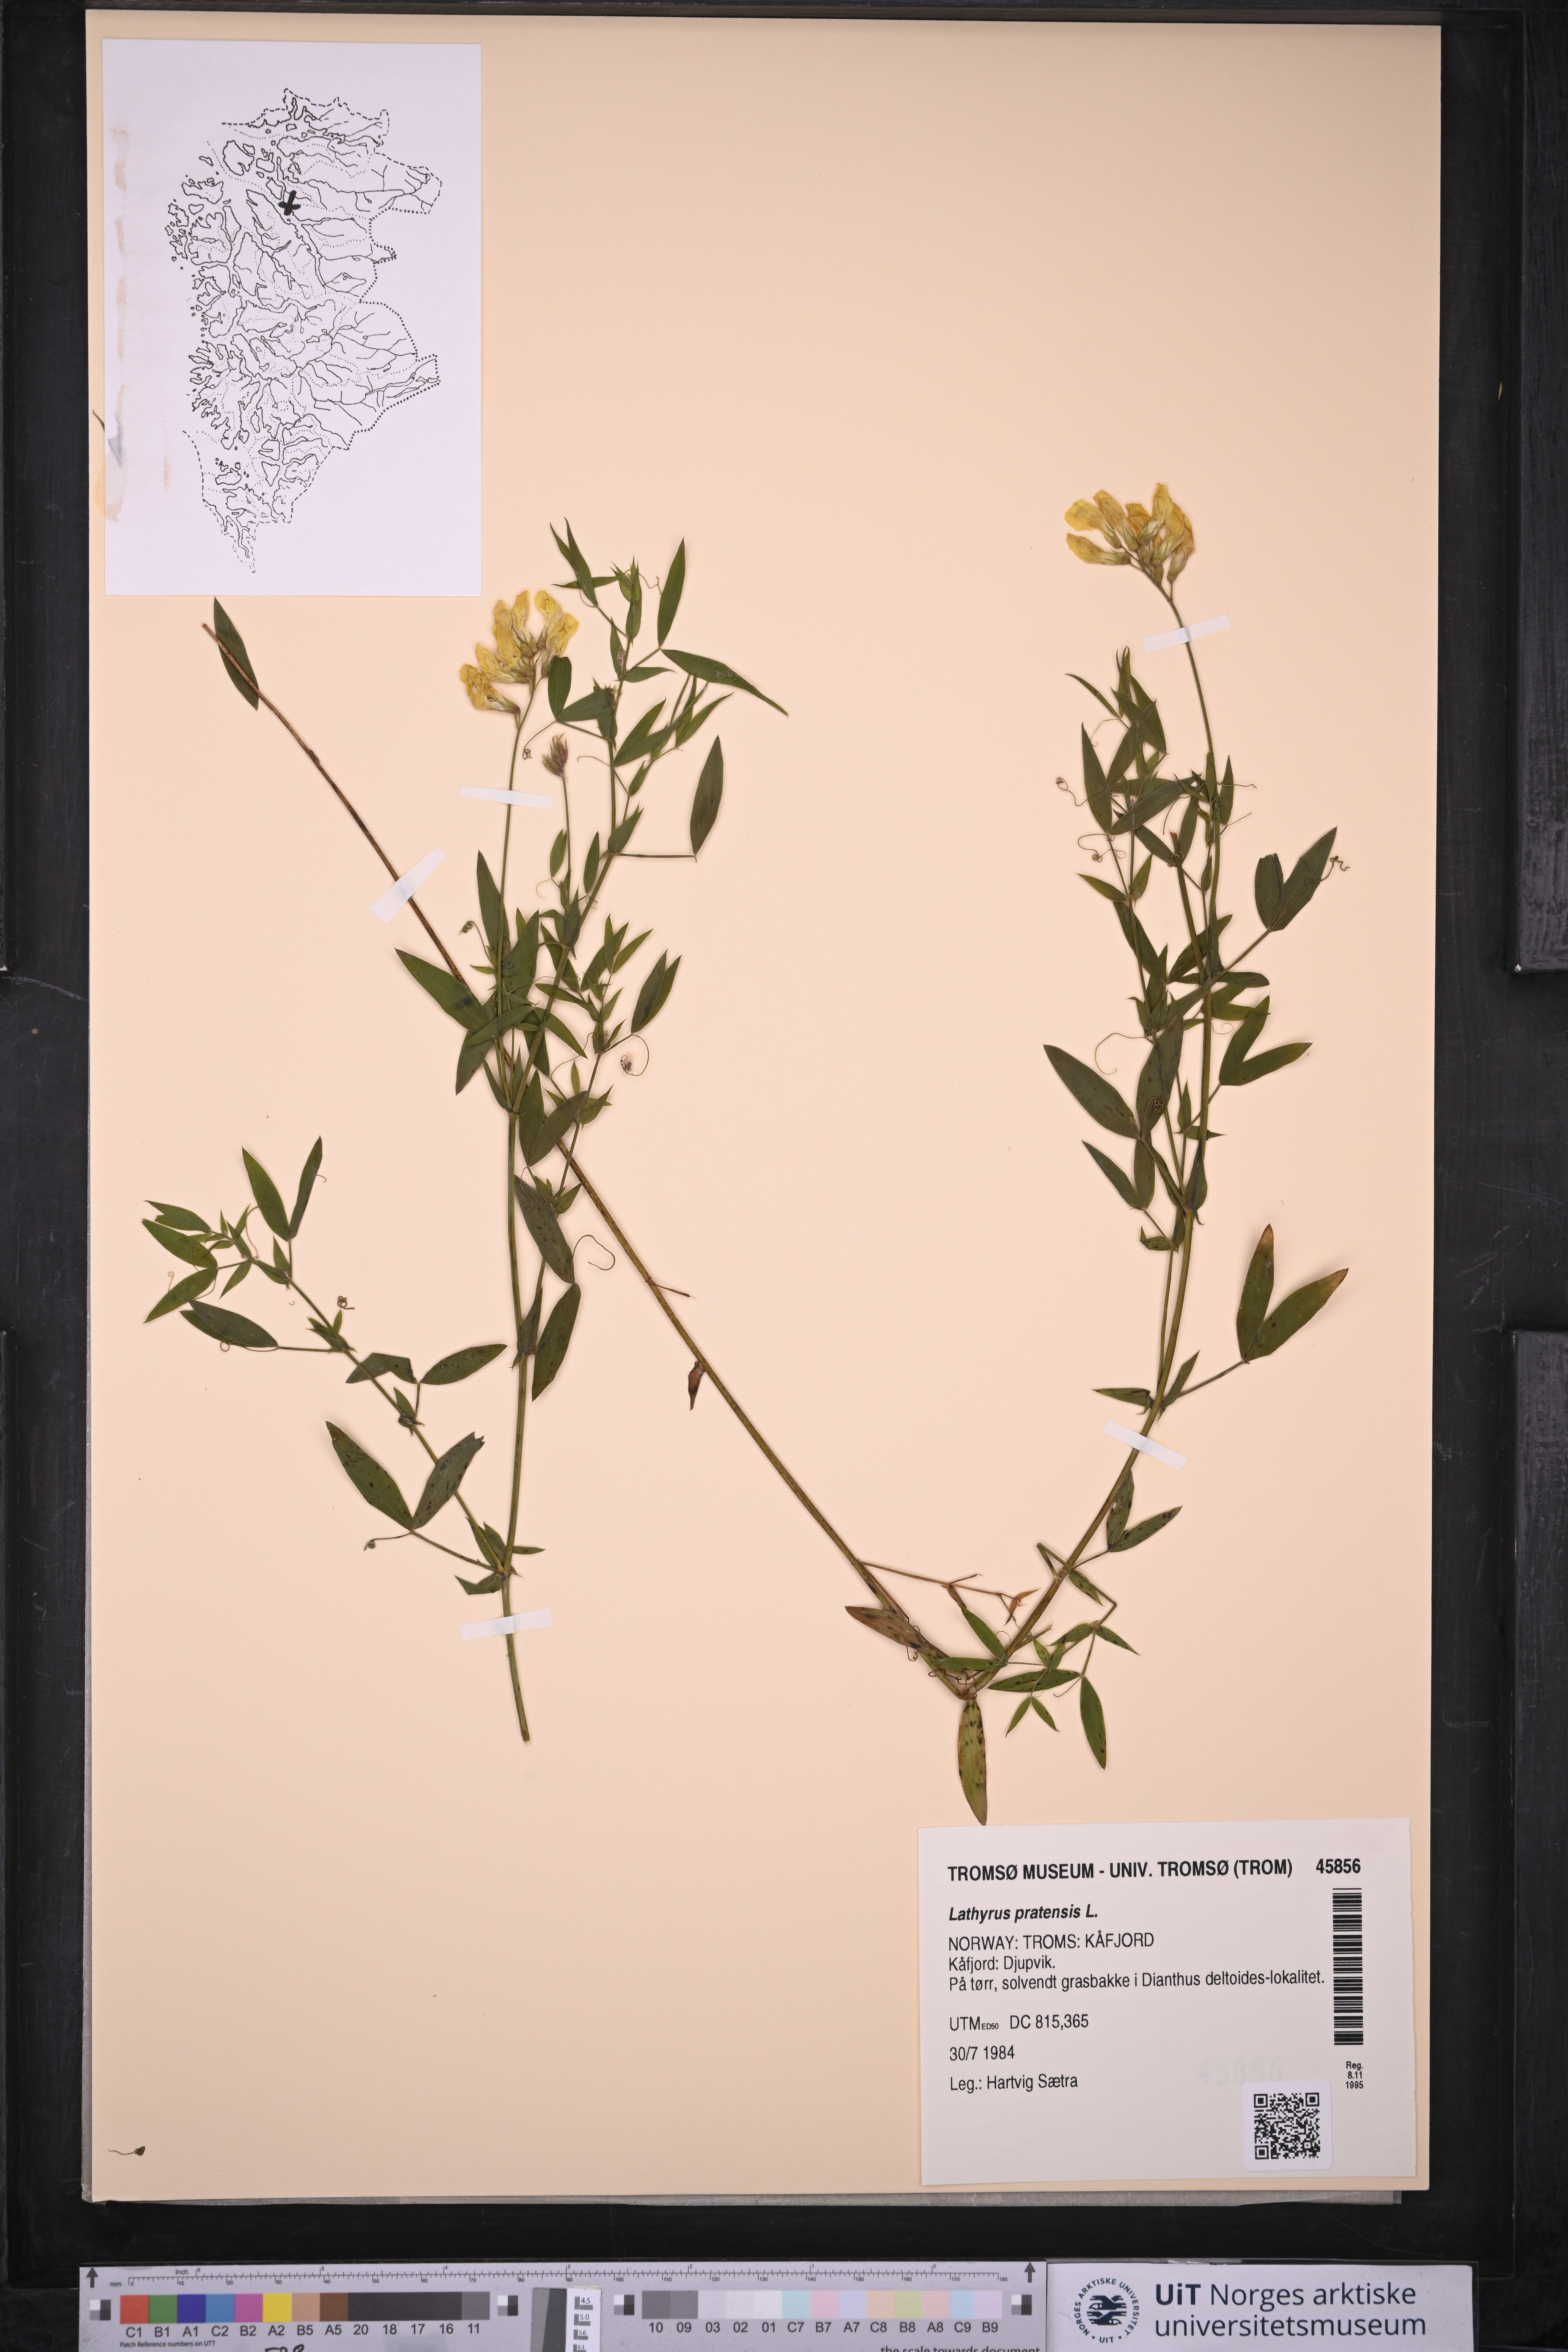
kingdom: Plantae
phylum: Tracheophyta
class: Magnoliopsida
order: Fabales
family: Fabaceae
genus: Lathyrus
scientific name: Lathyrus pratensis
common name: Meadow vetchling
